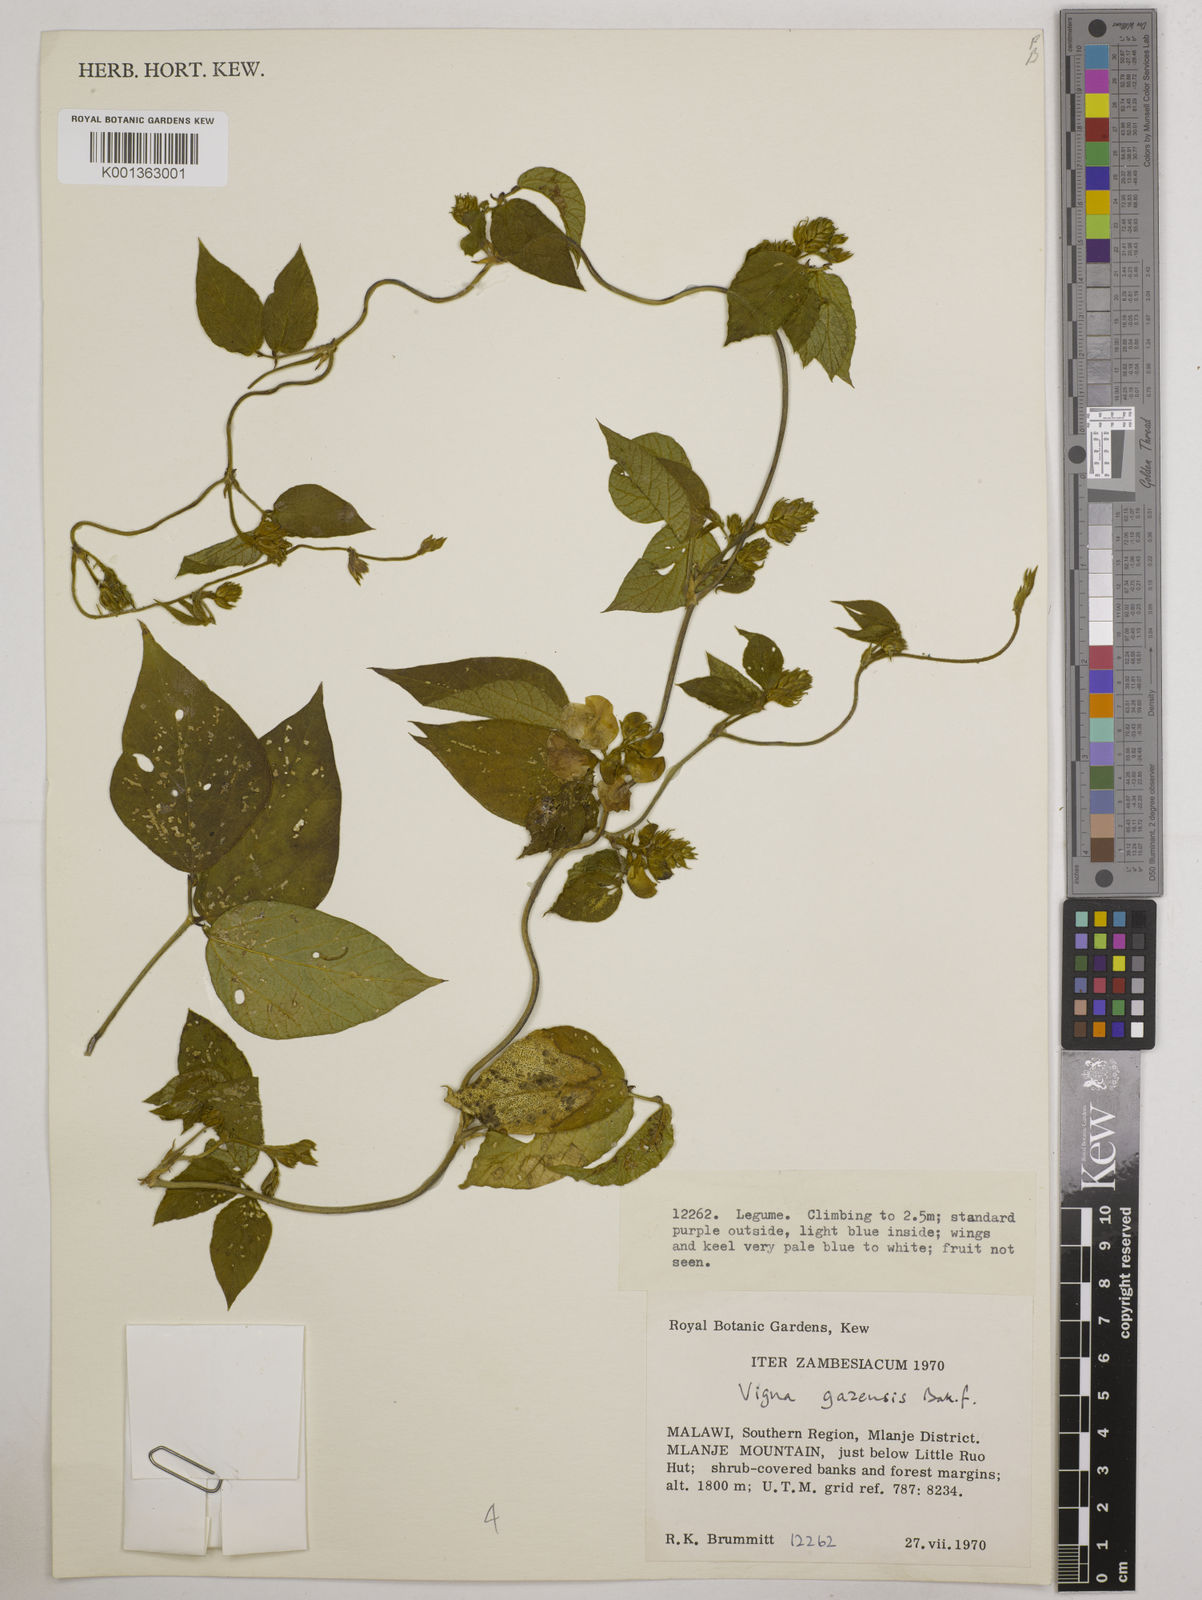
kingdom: Plantae
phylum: Tracheophyta
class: Magnoliopsida
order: Fabales
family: Fabaceae
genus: Vigna
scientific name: Vigna gazensis
